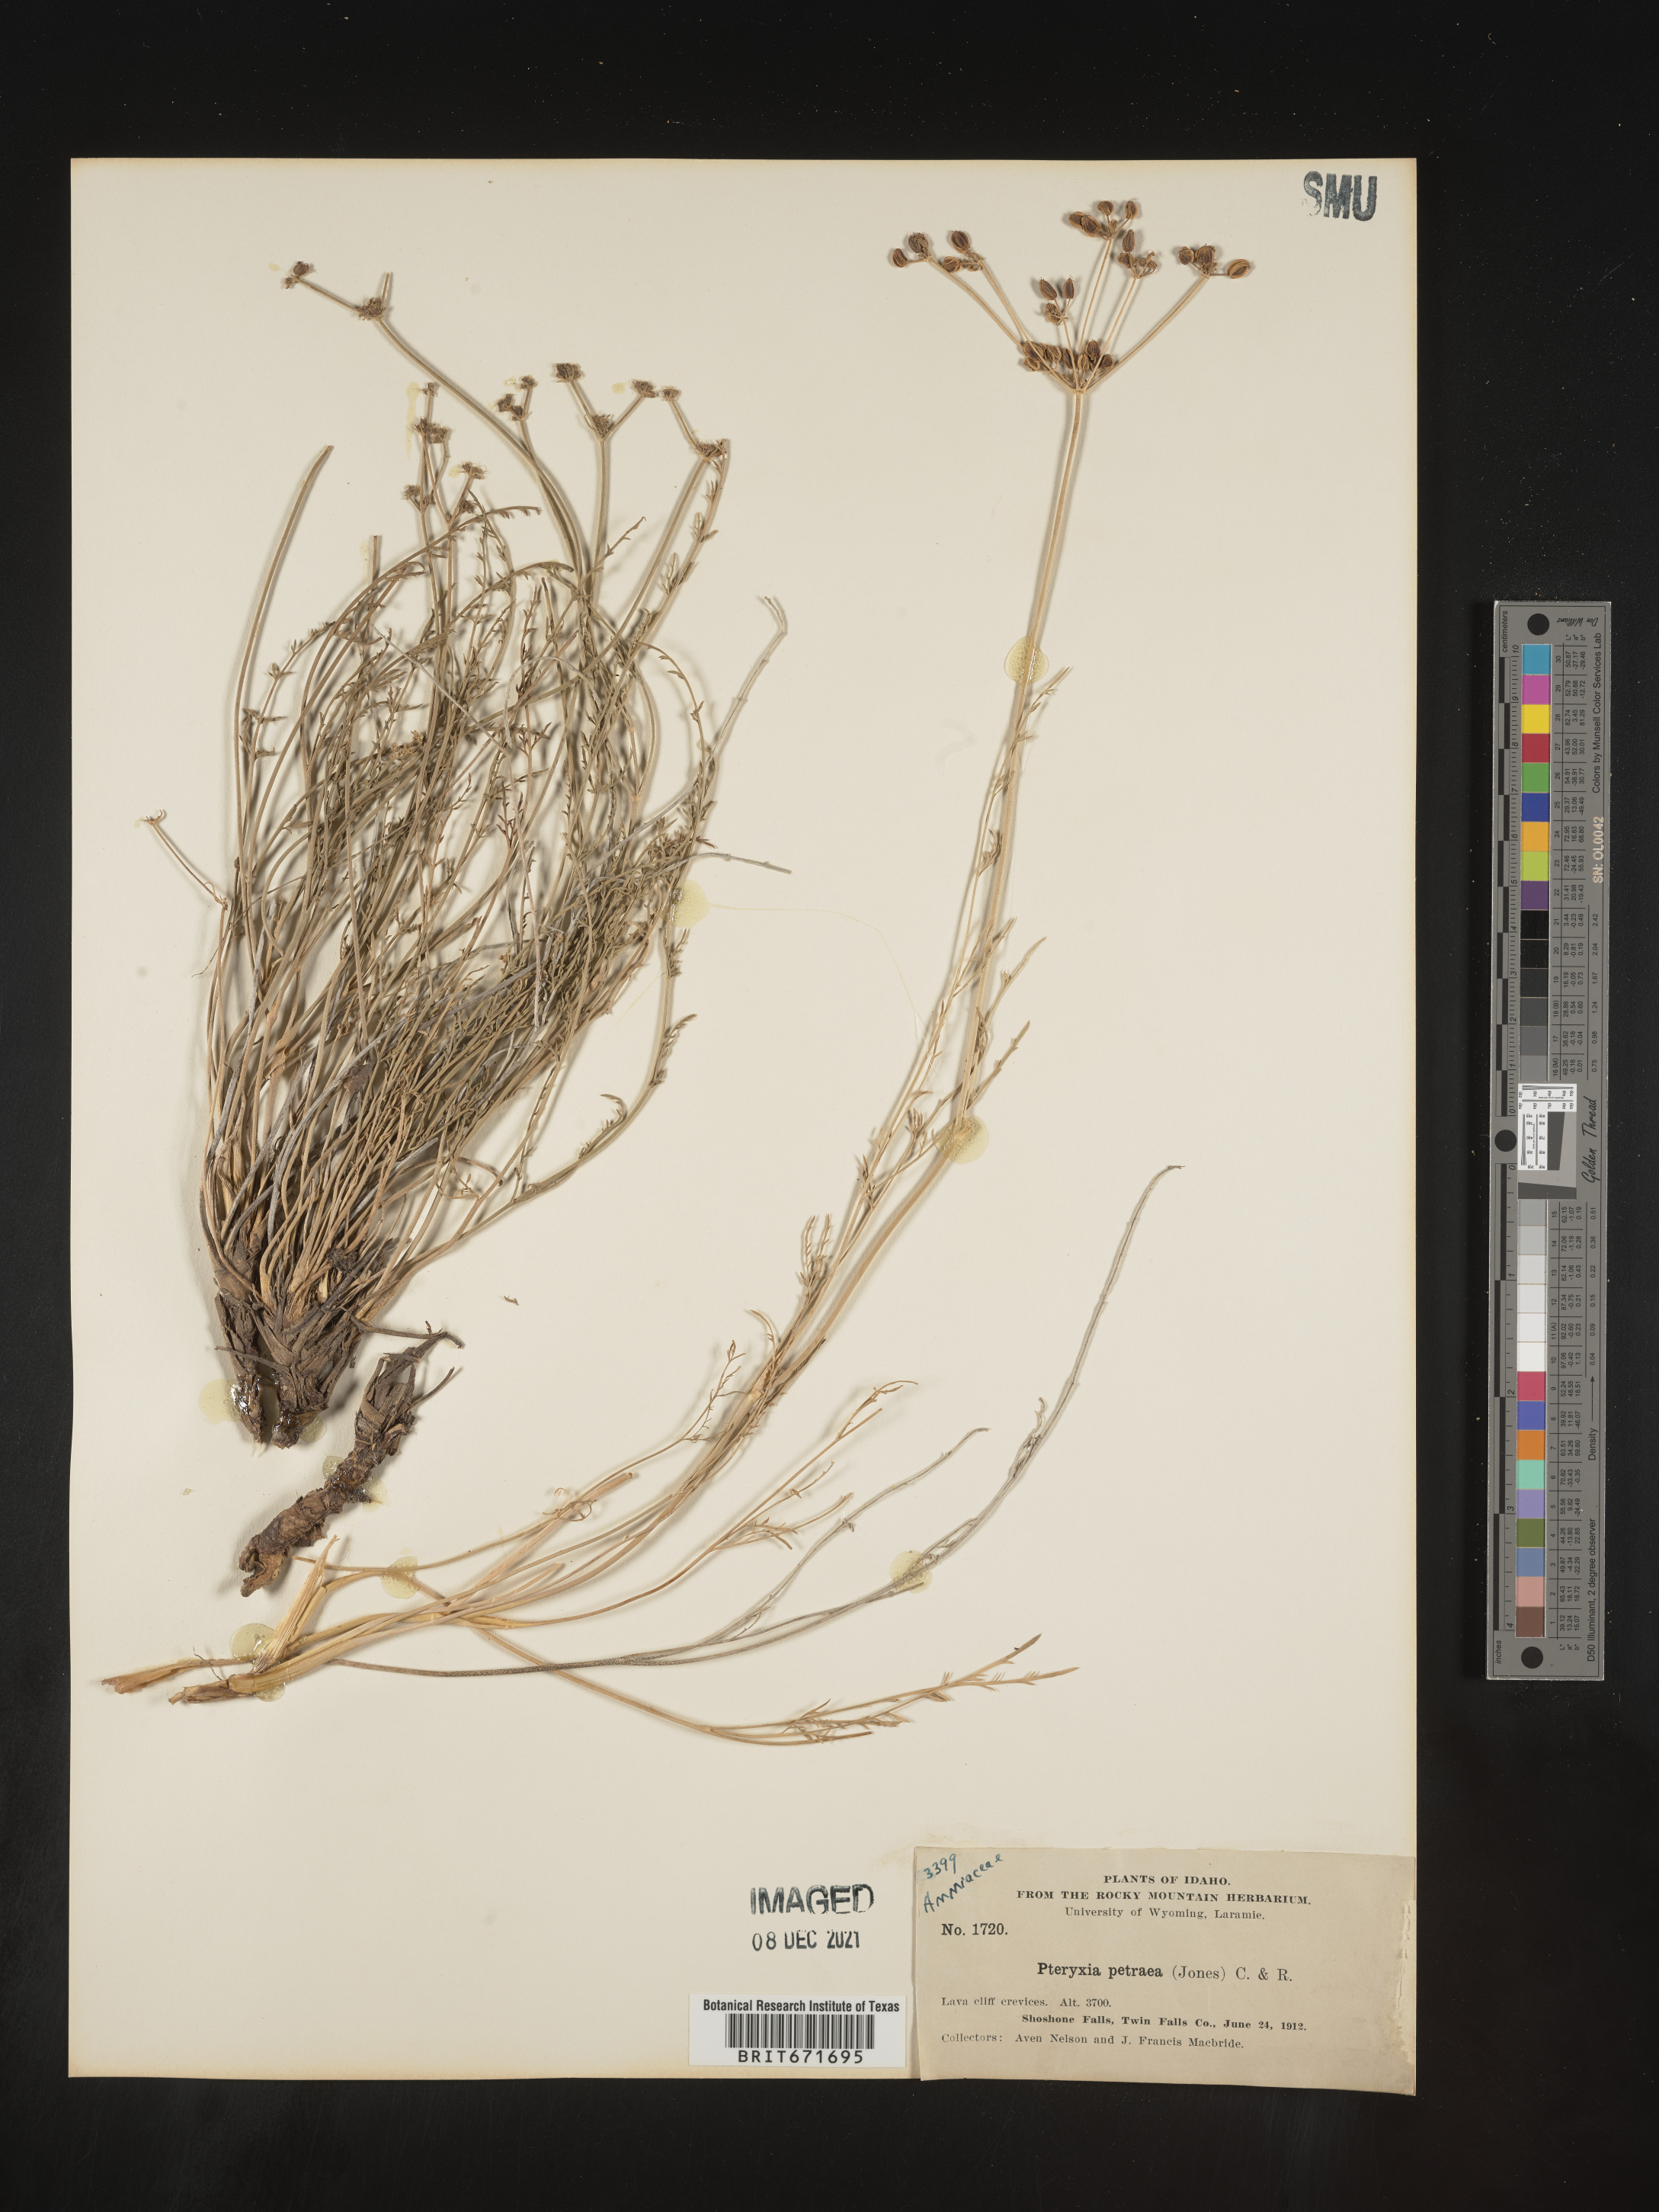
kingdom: Plantae
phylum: Tracheophyta
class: Magnoliopsida
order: Apiales
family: Apiaceae
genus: Pteryxia
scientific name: Pteryxia petraea
